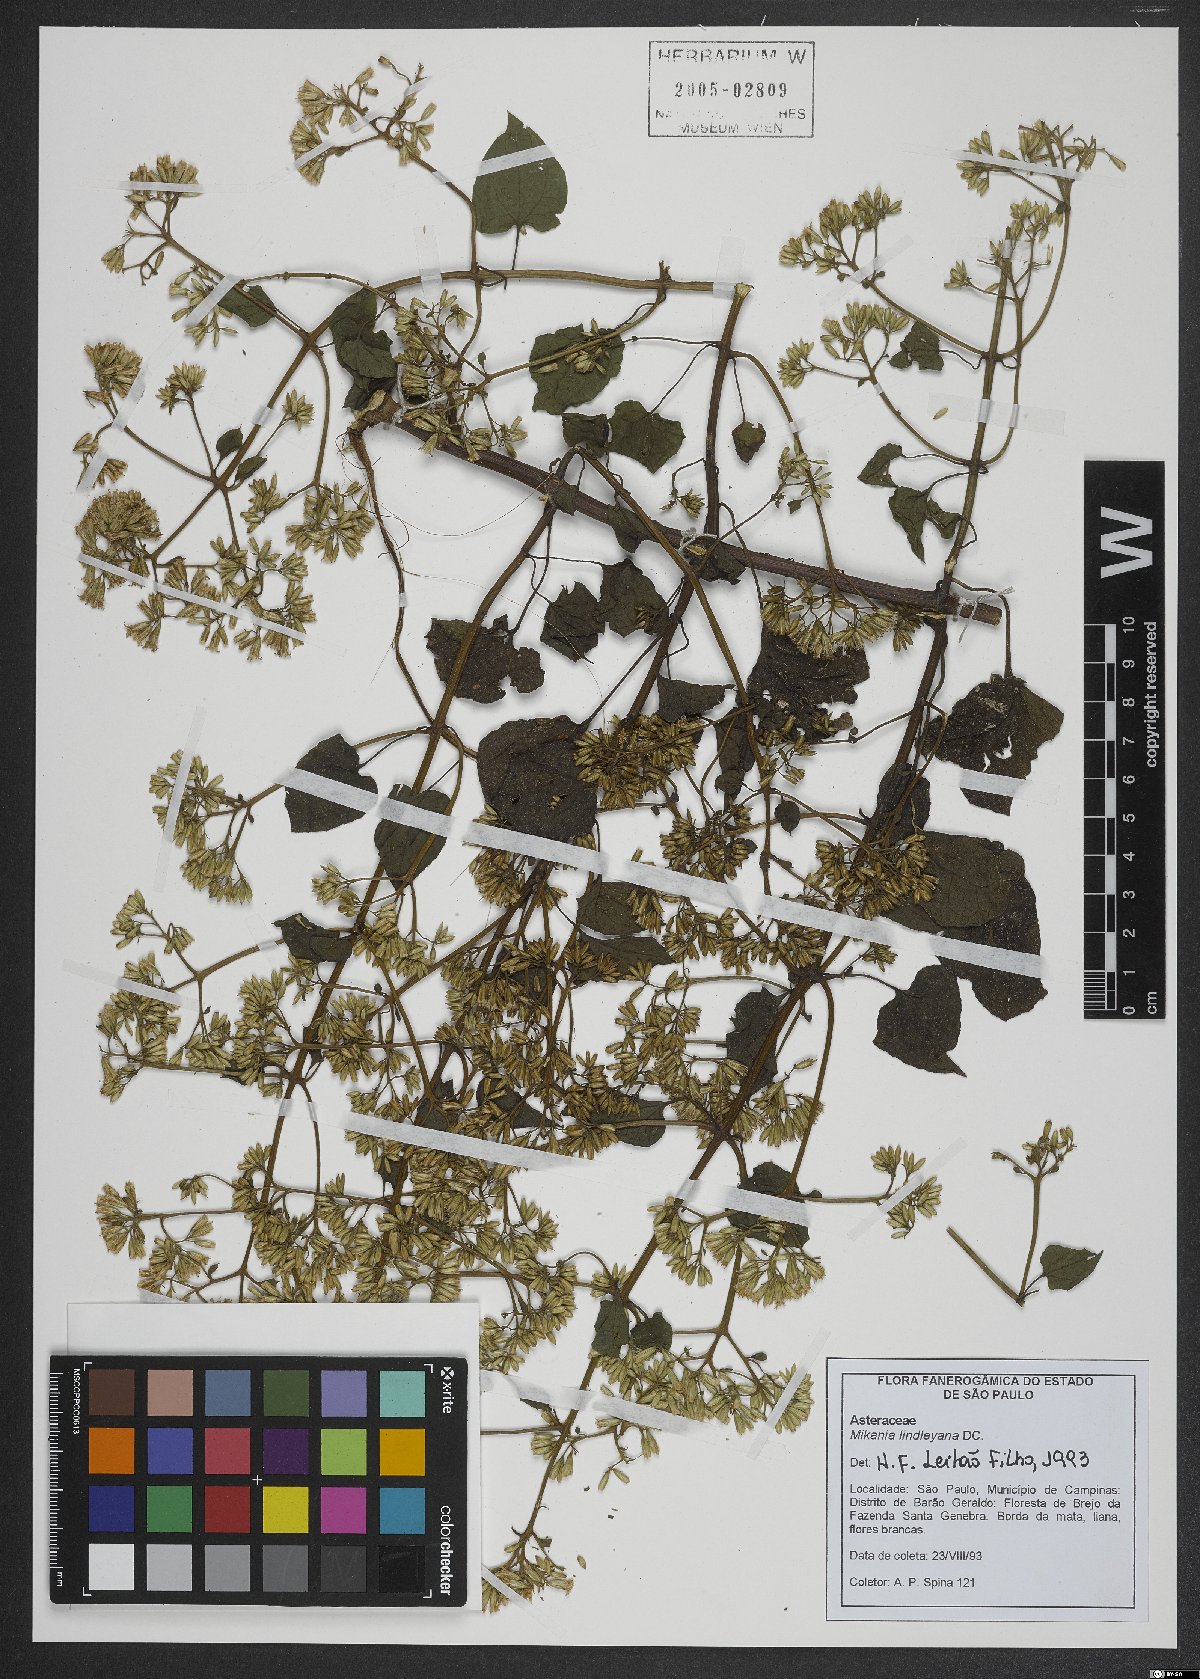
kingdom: Plantae
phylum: Tracheophyta
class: Magnoliopsida
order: Asterales
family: Asteraceae
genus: Mikania
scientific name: Mikania lindleyana
